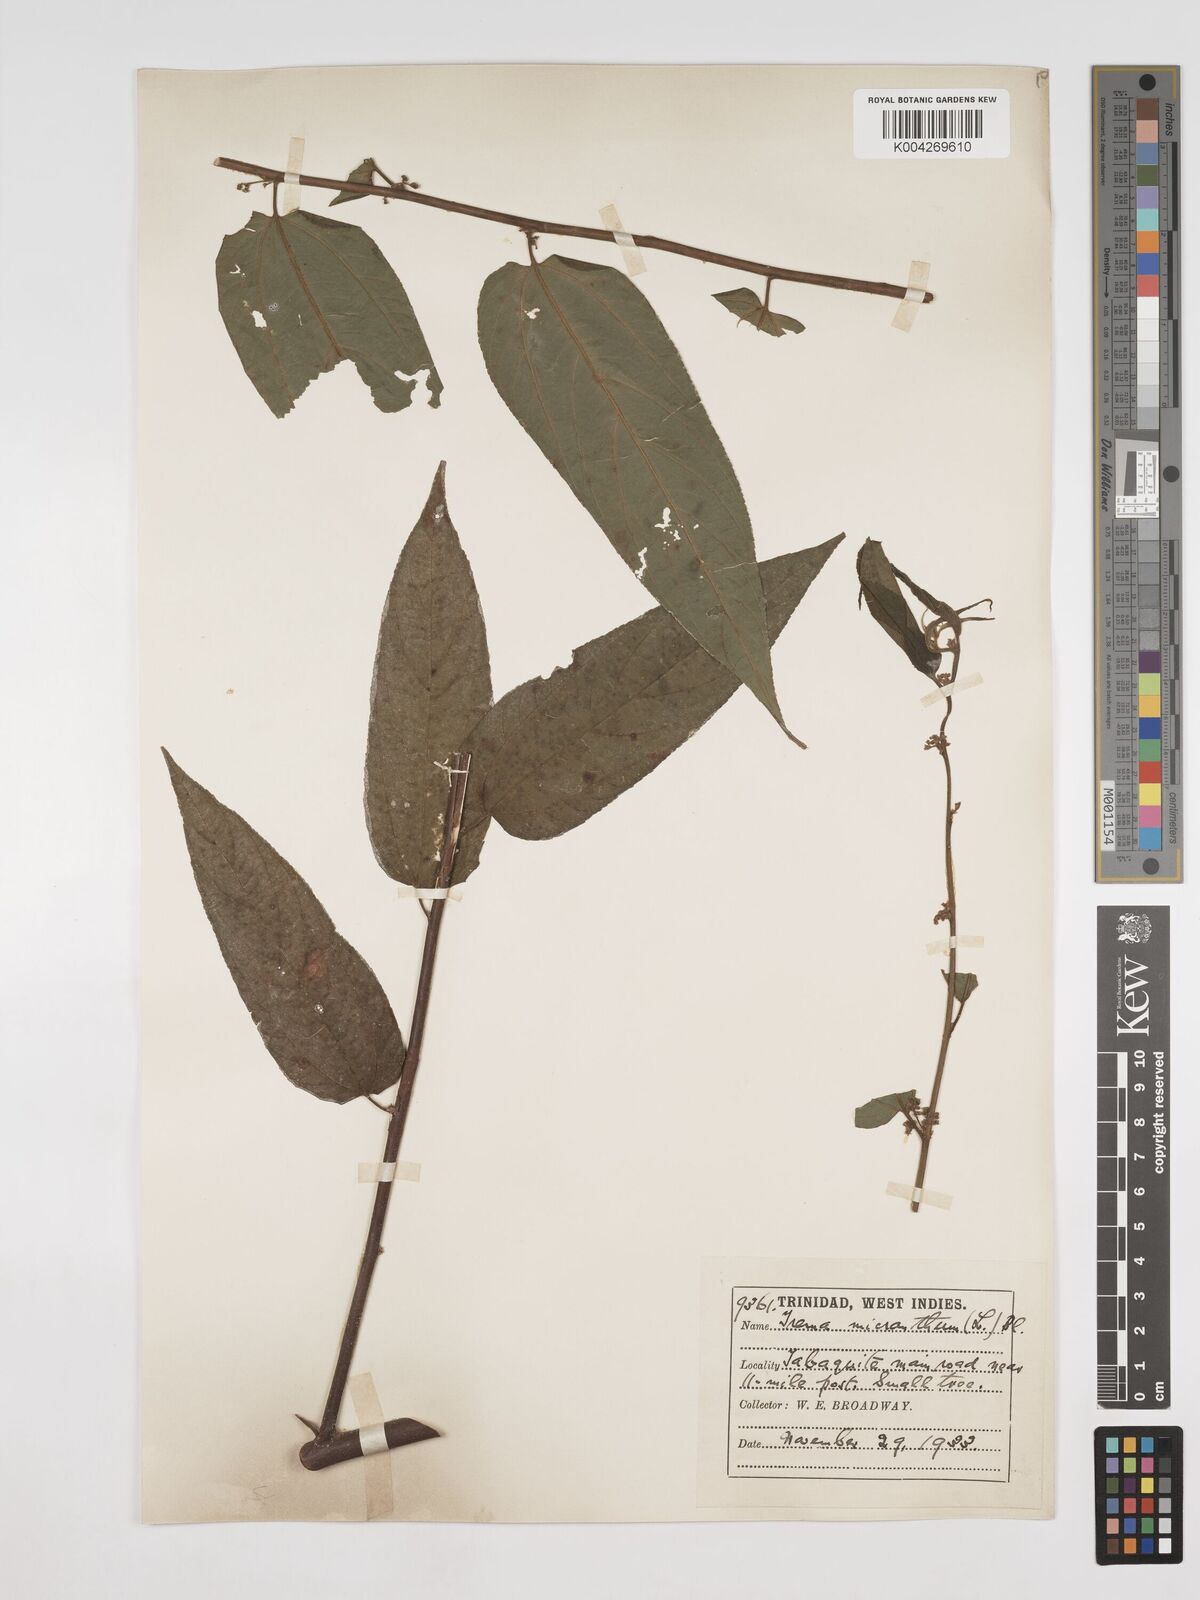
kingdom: Plantae
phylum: Tracheophyta
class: Magnoliopsida
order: Rosales
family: Cannabaceae
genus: Trema
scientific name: Trema micranthum
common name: Jamaican nettletree
